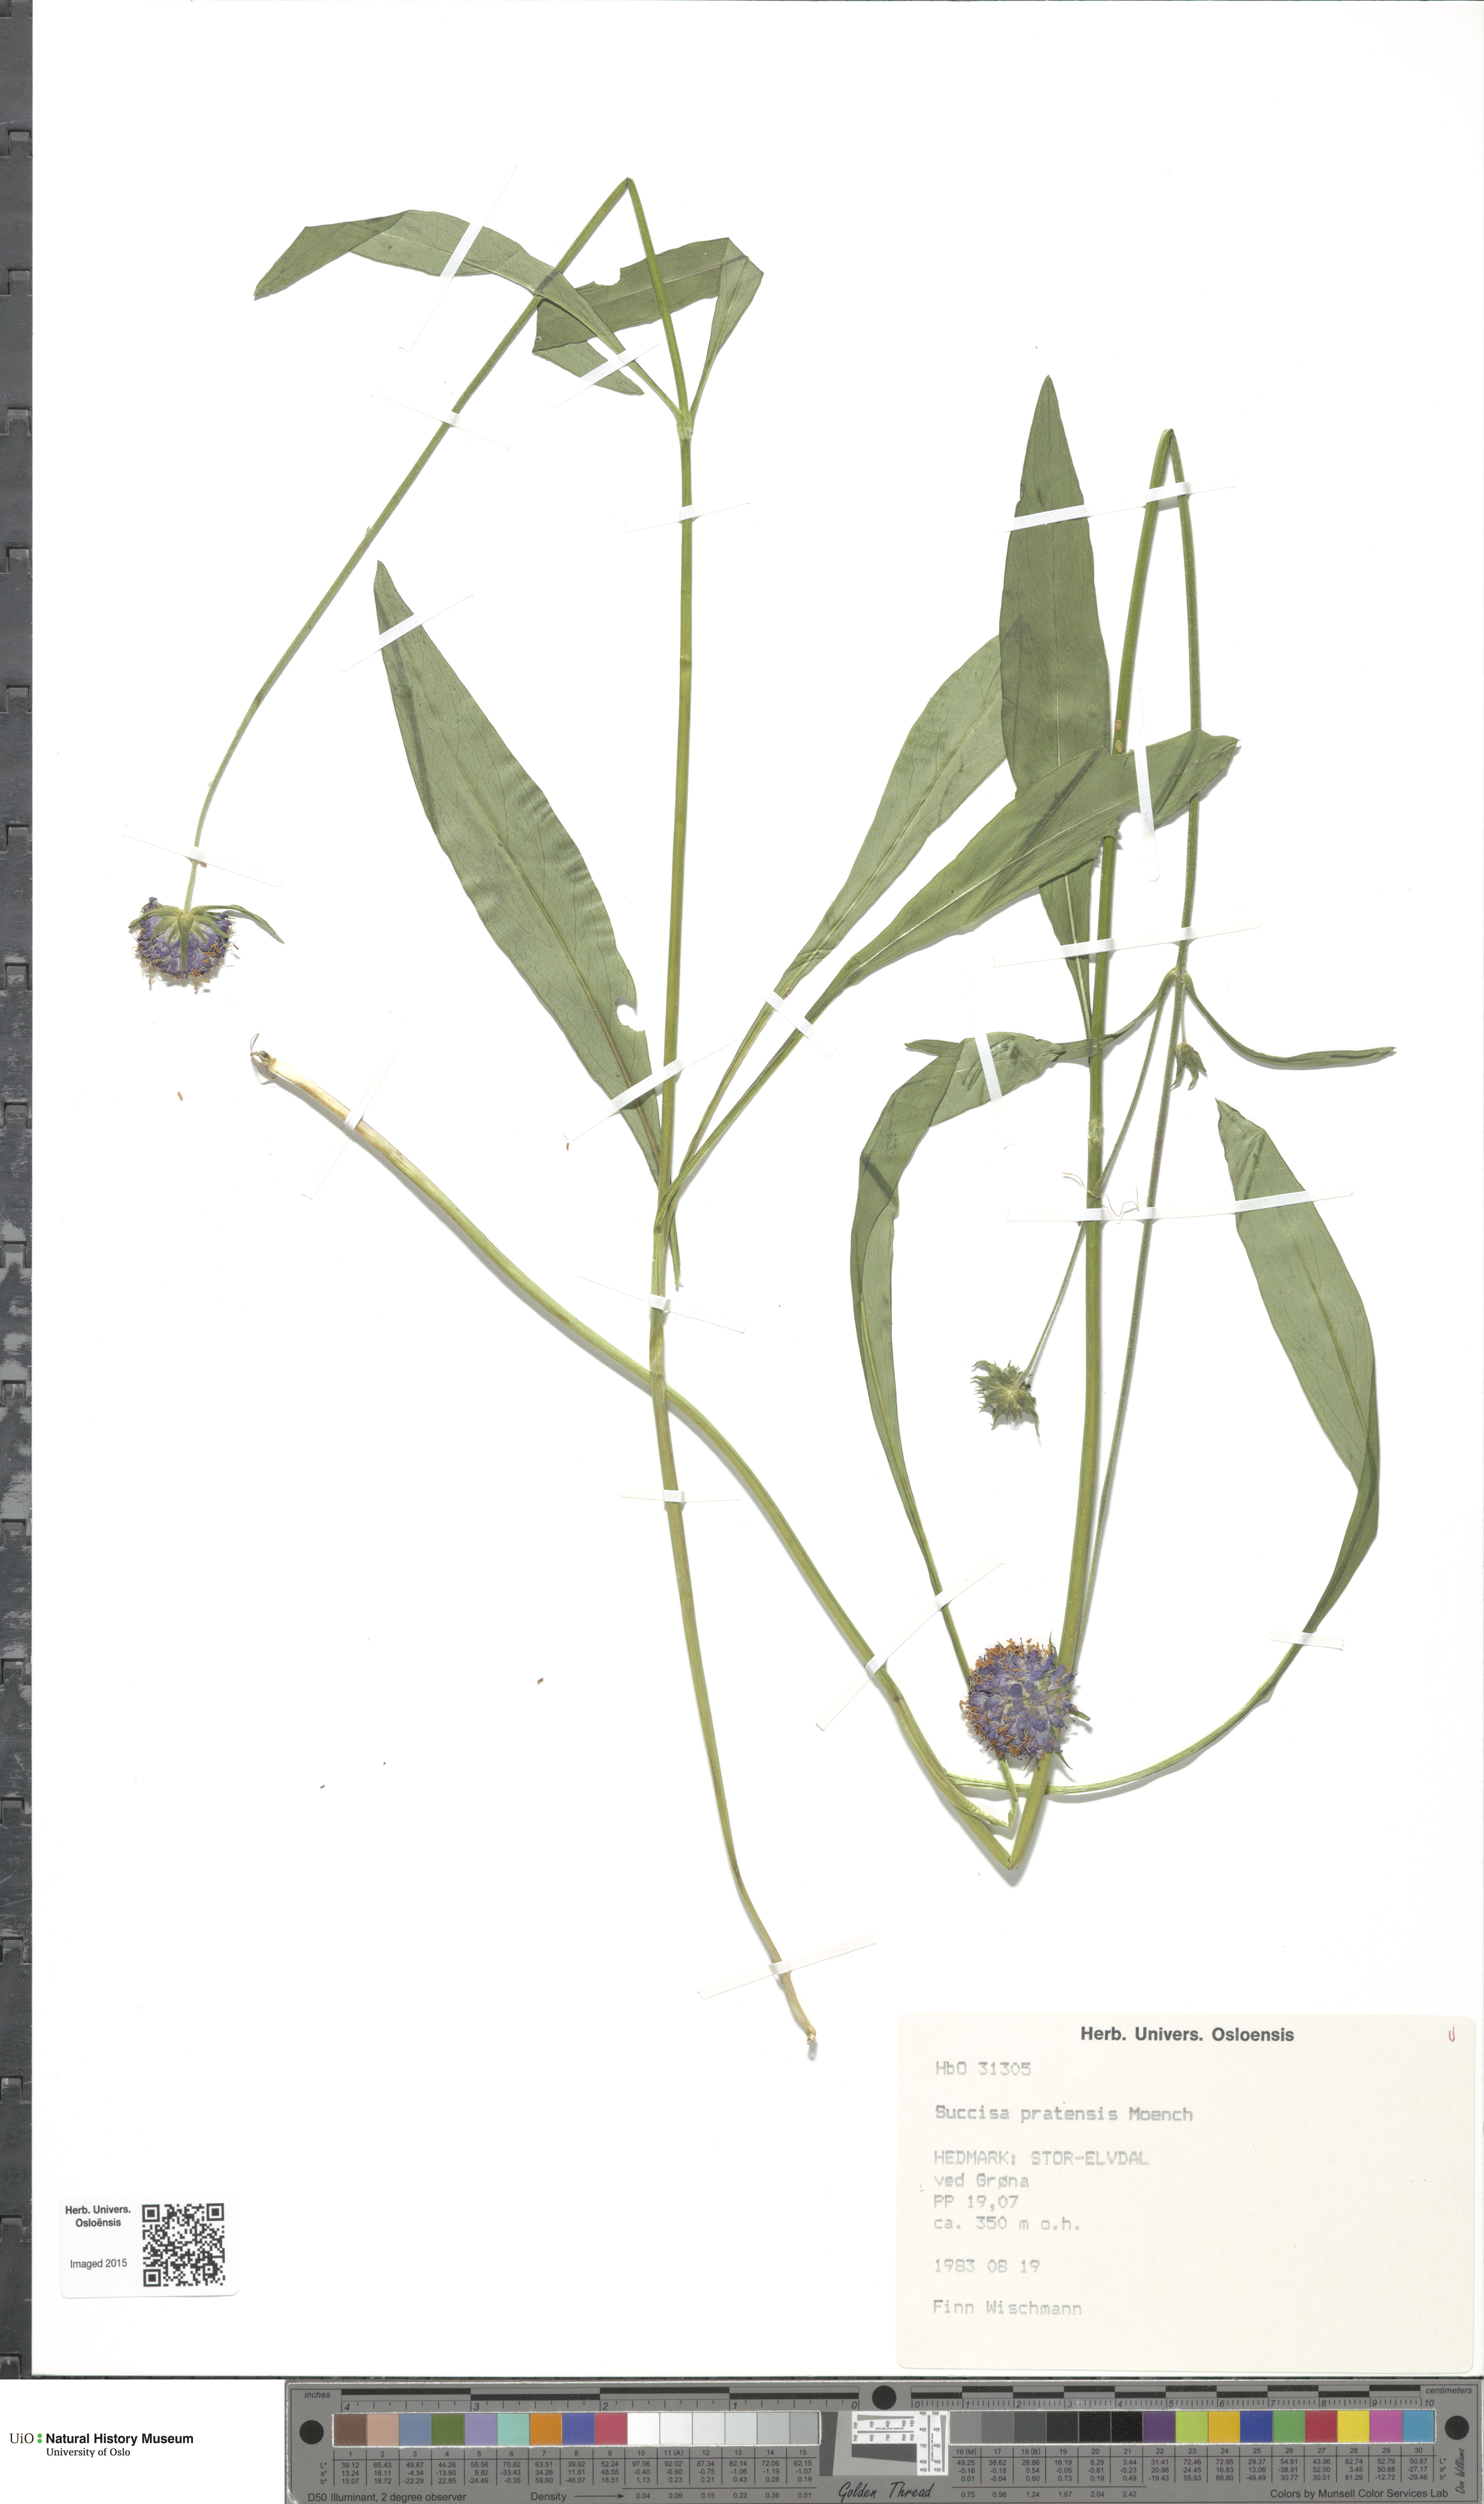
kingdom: Plantae
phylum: Tracheophyta
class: Magnoliopsida
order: Dipsacales
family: Caprifoliaceae
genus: Succisa
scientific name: Succisa pratensis
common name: Devil's-bit
